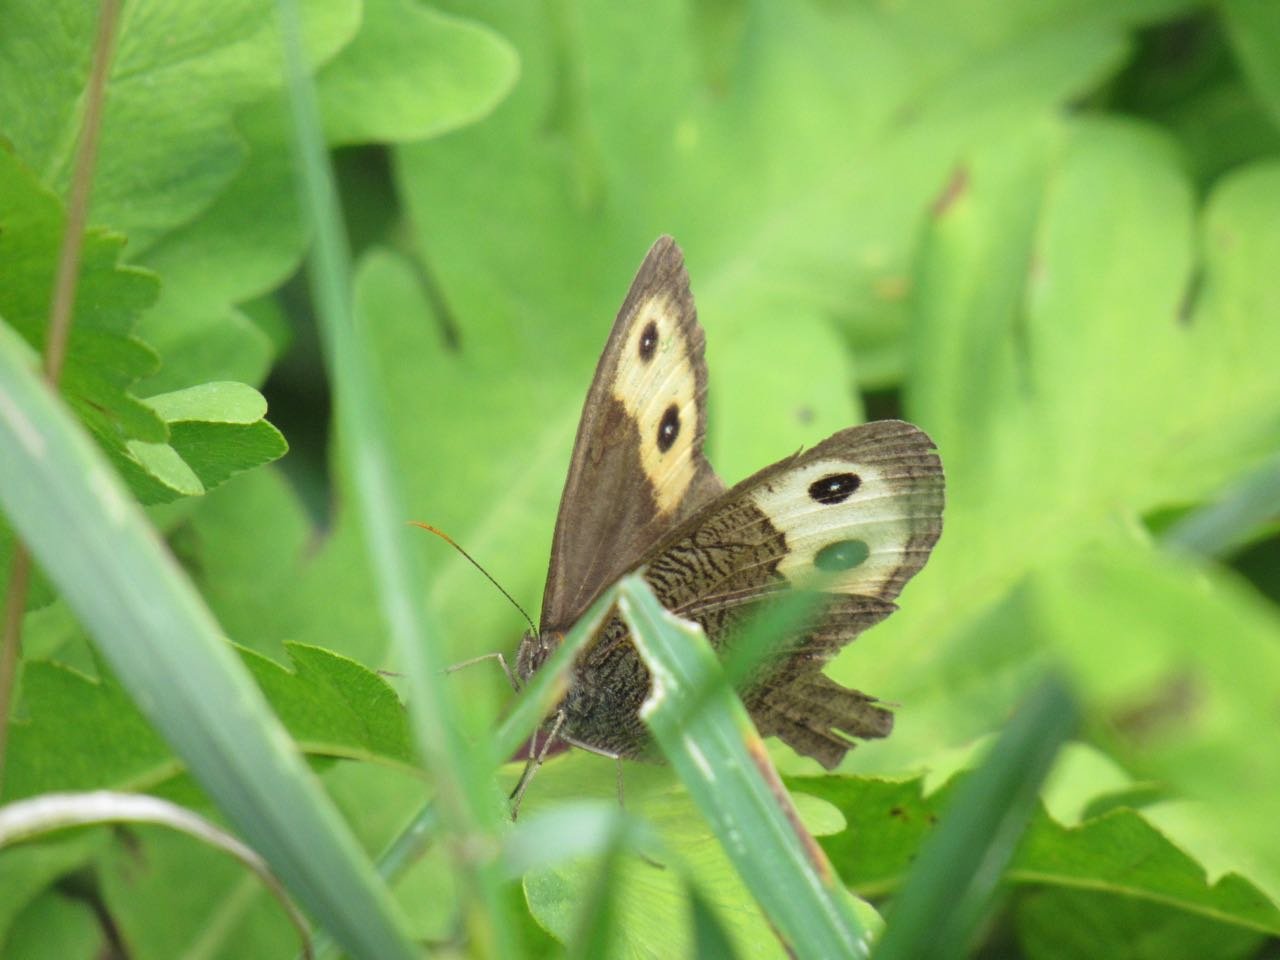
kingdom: Animalia
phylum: Arthropoda
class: Insecta
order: Lepidoptera
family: Nymphalidae
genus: Cercyonis
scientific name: Cercyonis pegala
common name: Common Wood-Nymph
